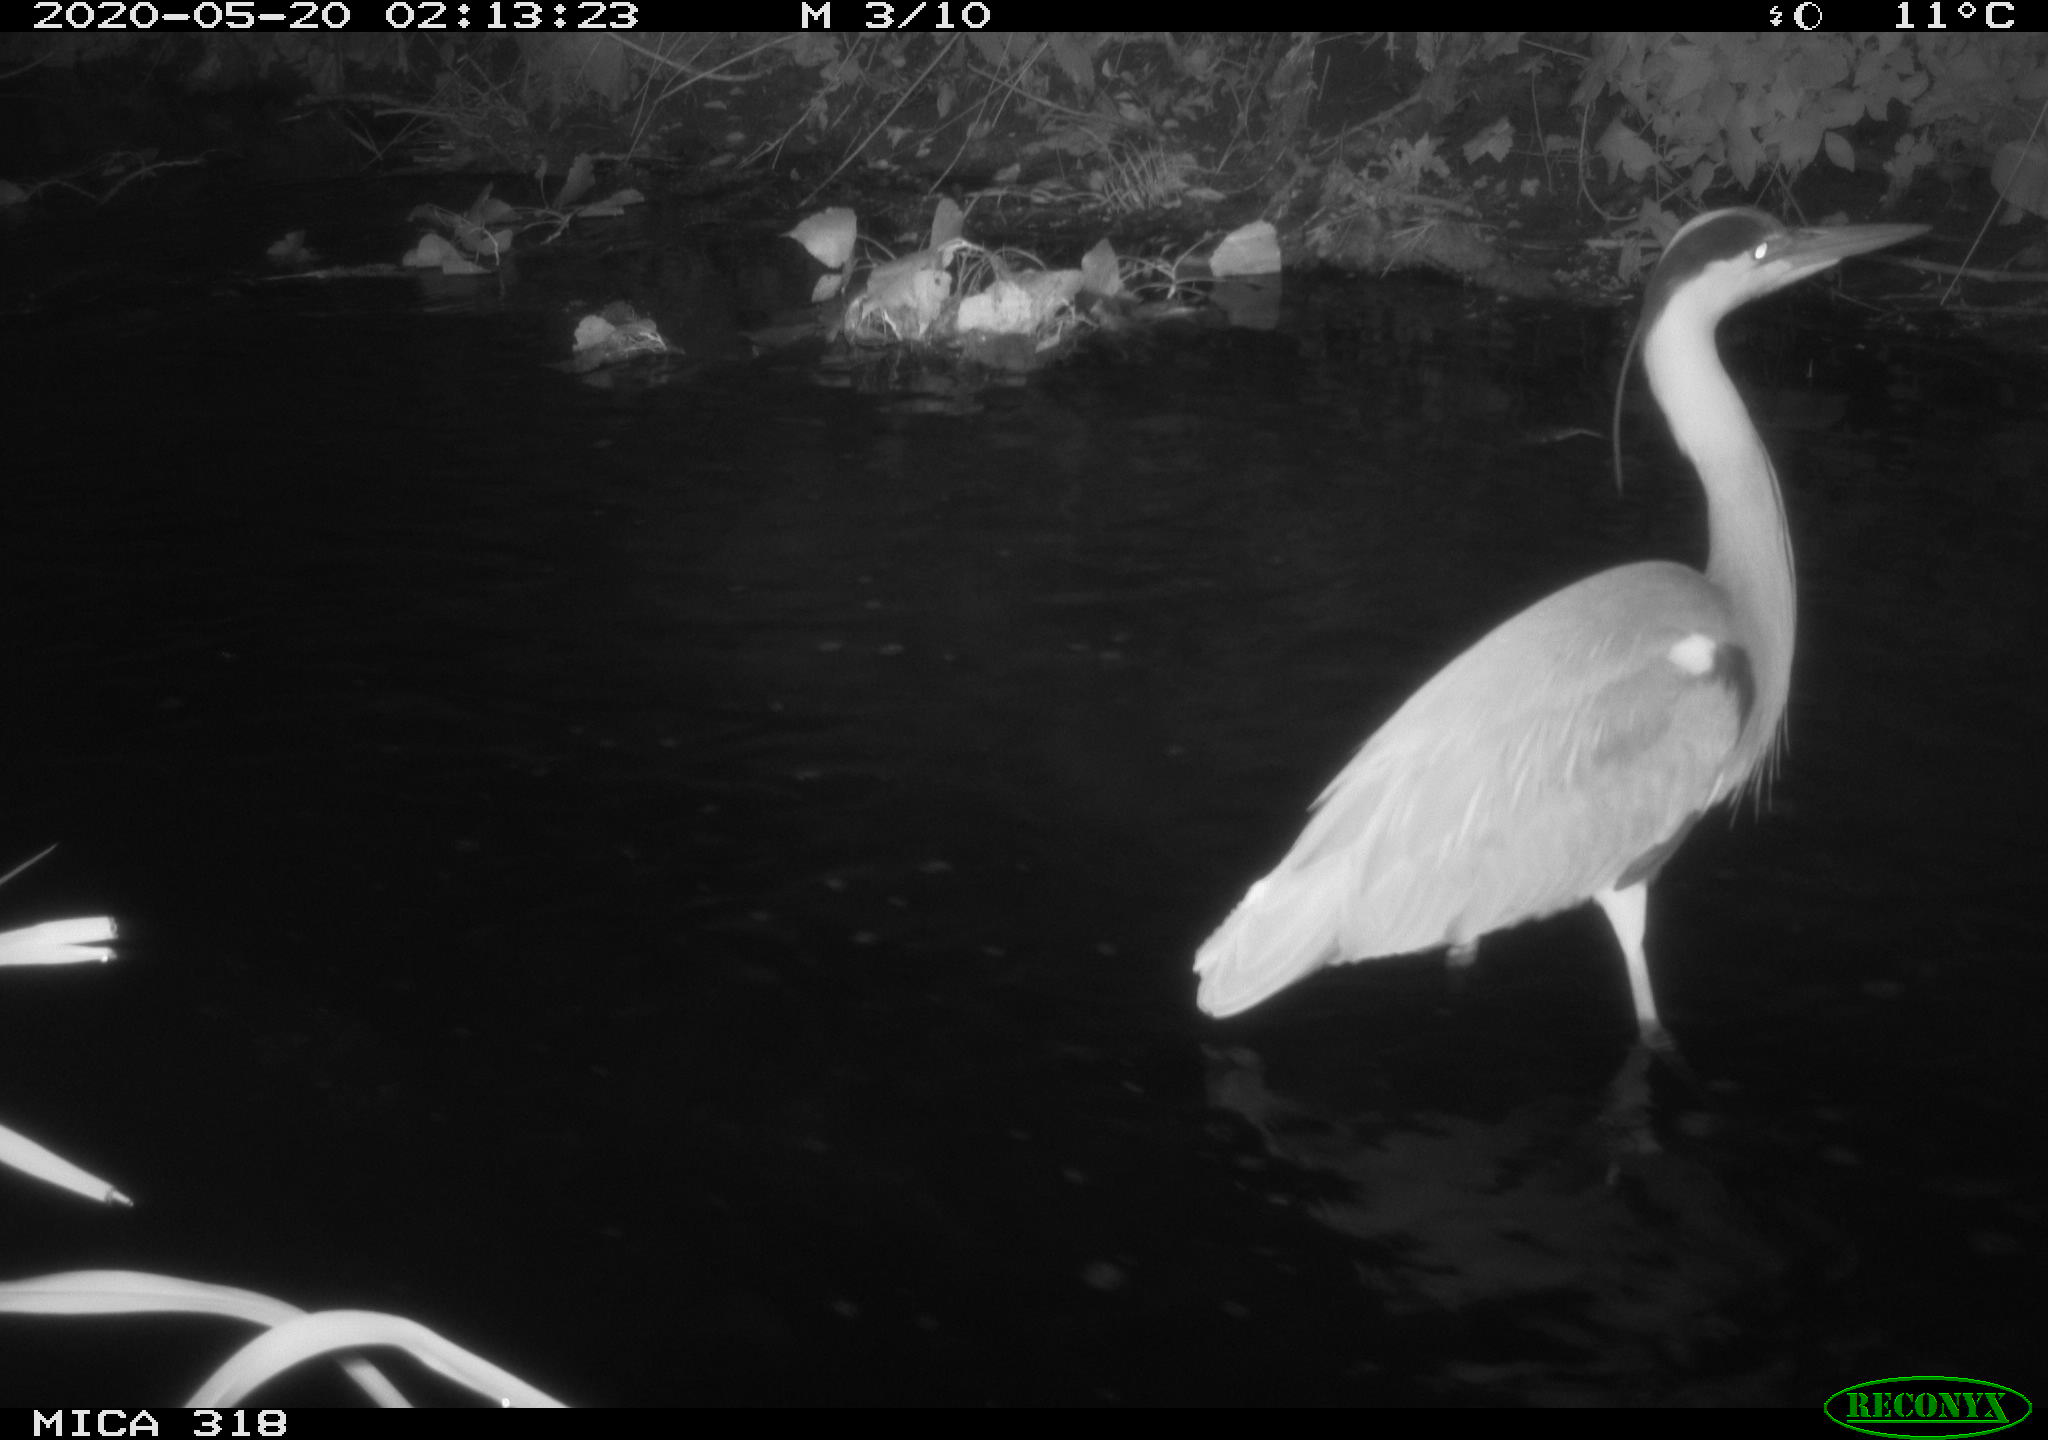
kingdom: Animalia
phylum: Chordata
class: Aves
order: Pelecaniformes
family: Ardeidae
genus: Ardea
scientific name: Ardea cinerea
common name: Grey heron
